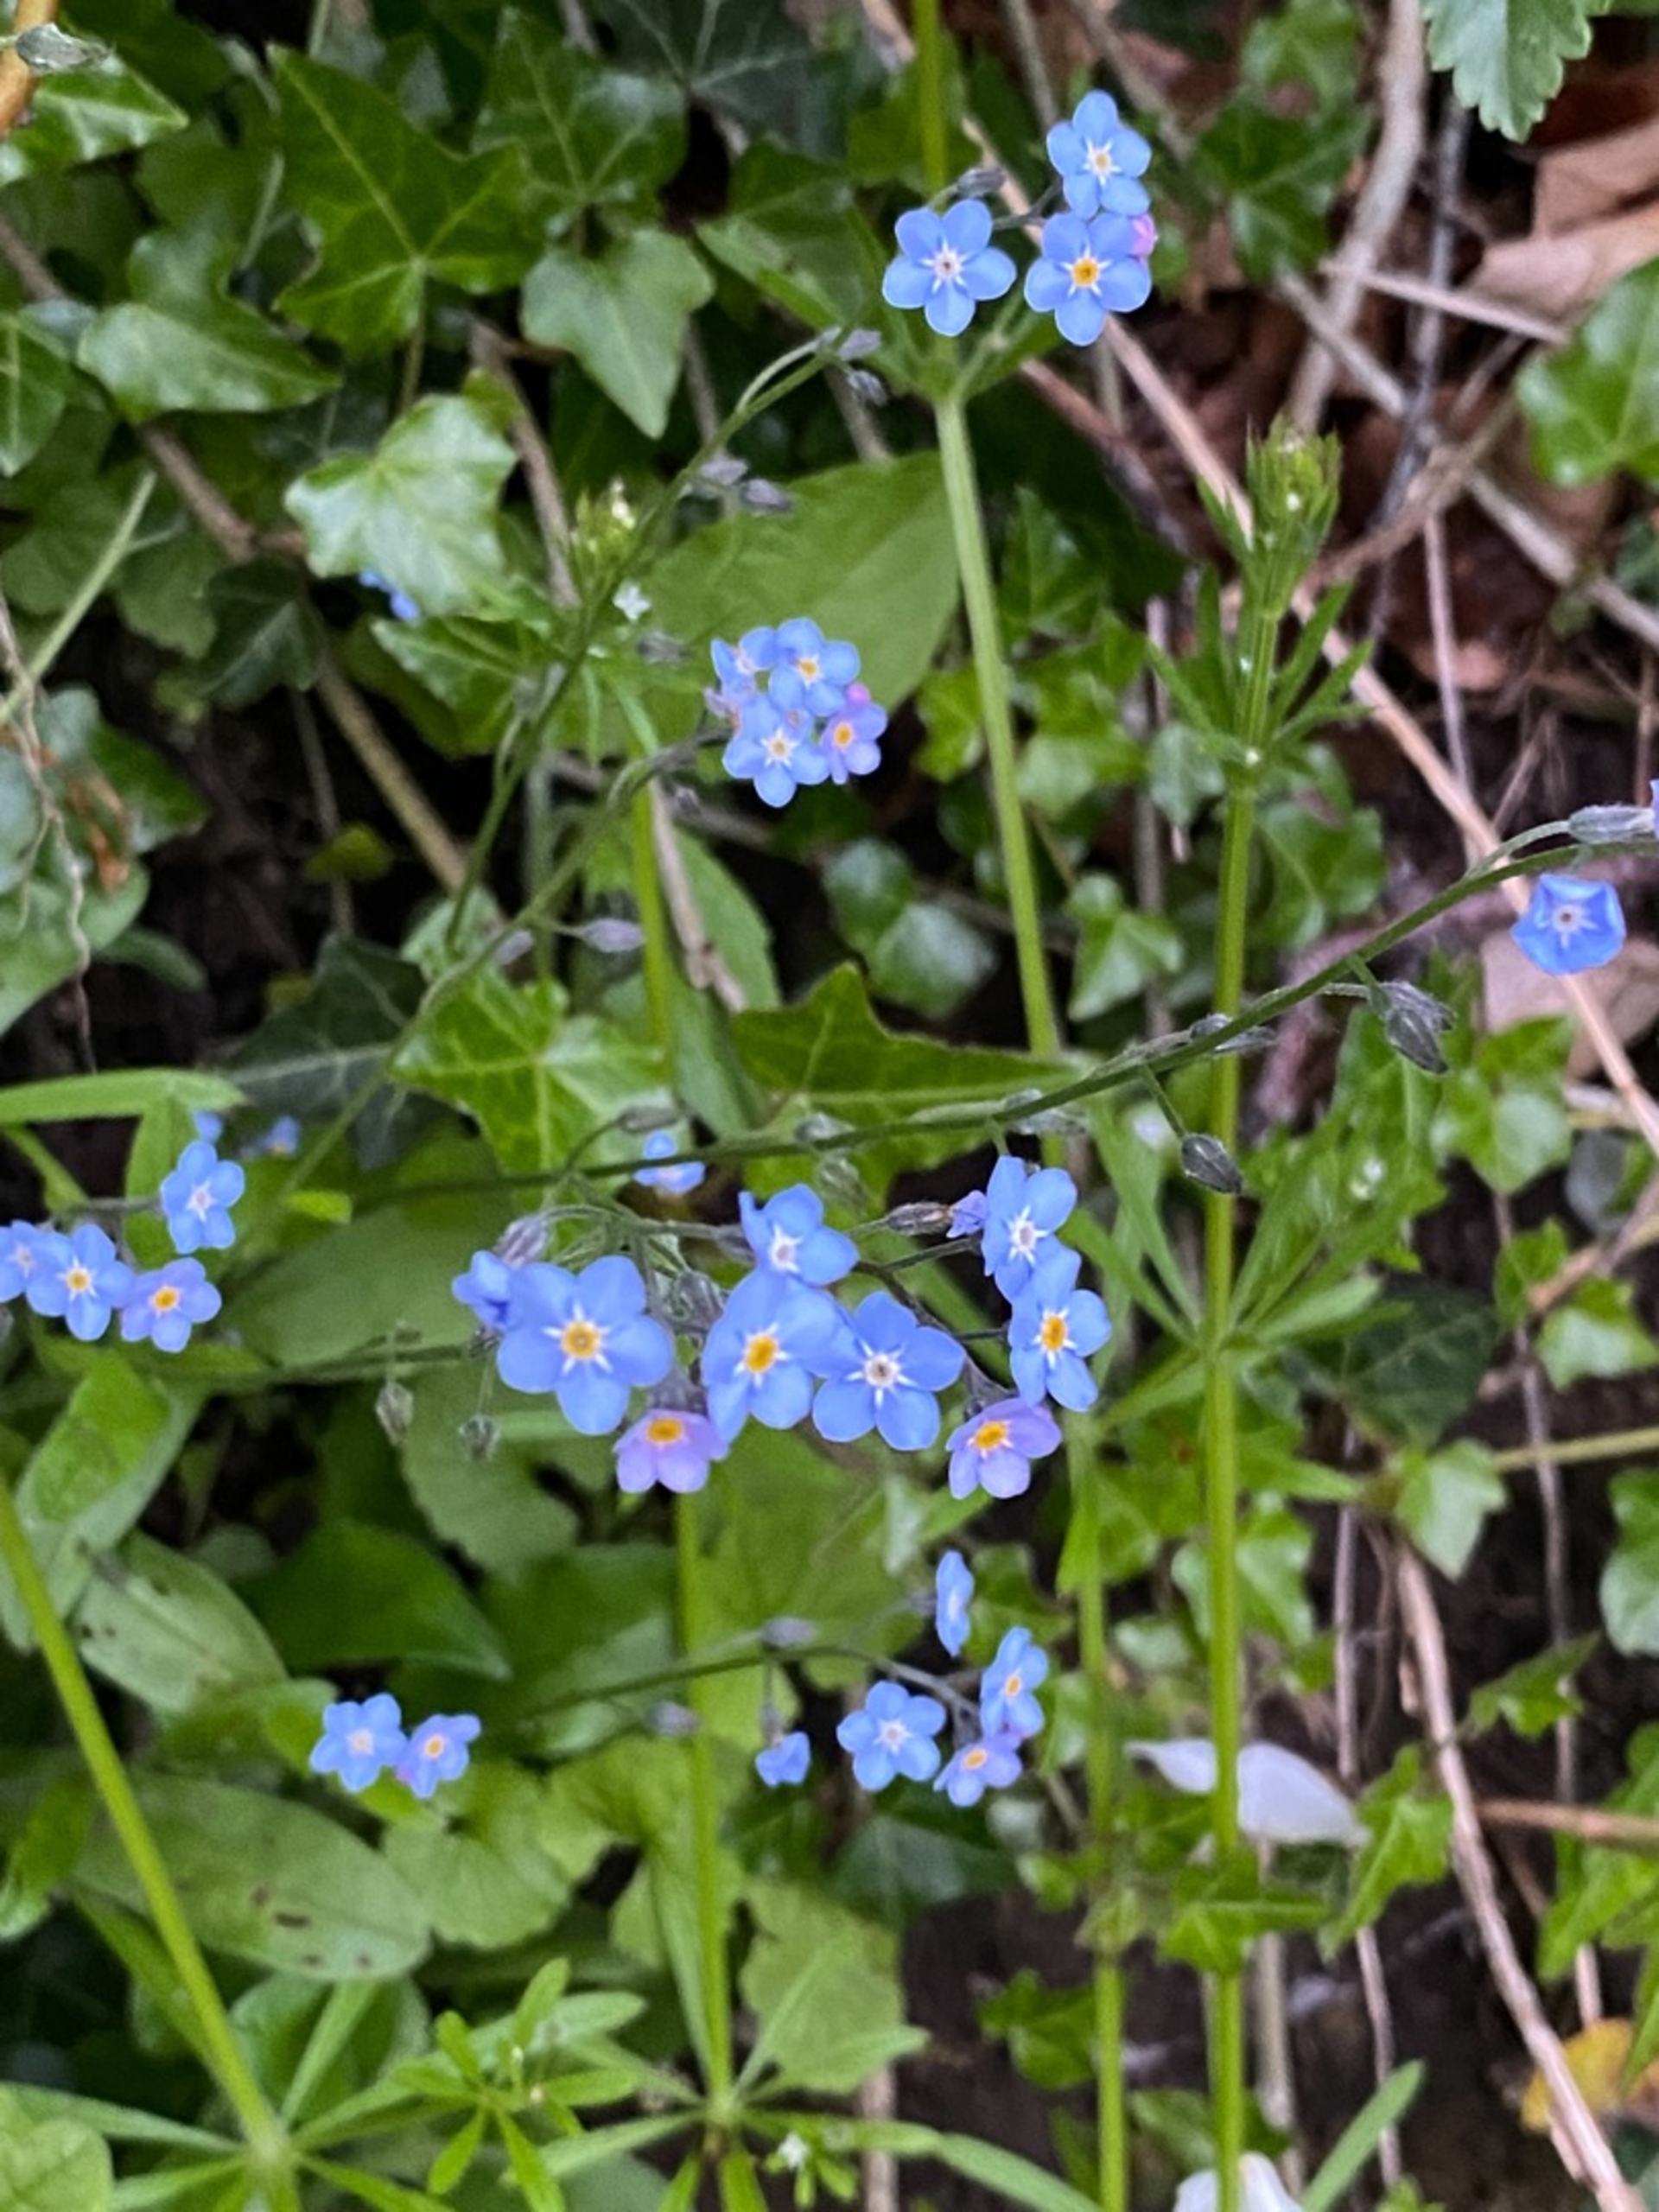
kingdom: Plantae
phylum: Tracheophyta
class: Magnoliopsida
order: Boraginales
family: Boraginaceae
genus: Myosotis
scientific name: Myosotis sylvatica
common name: Skov-forglemmigej
